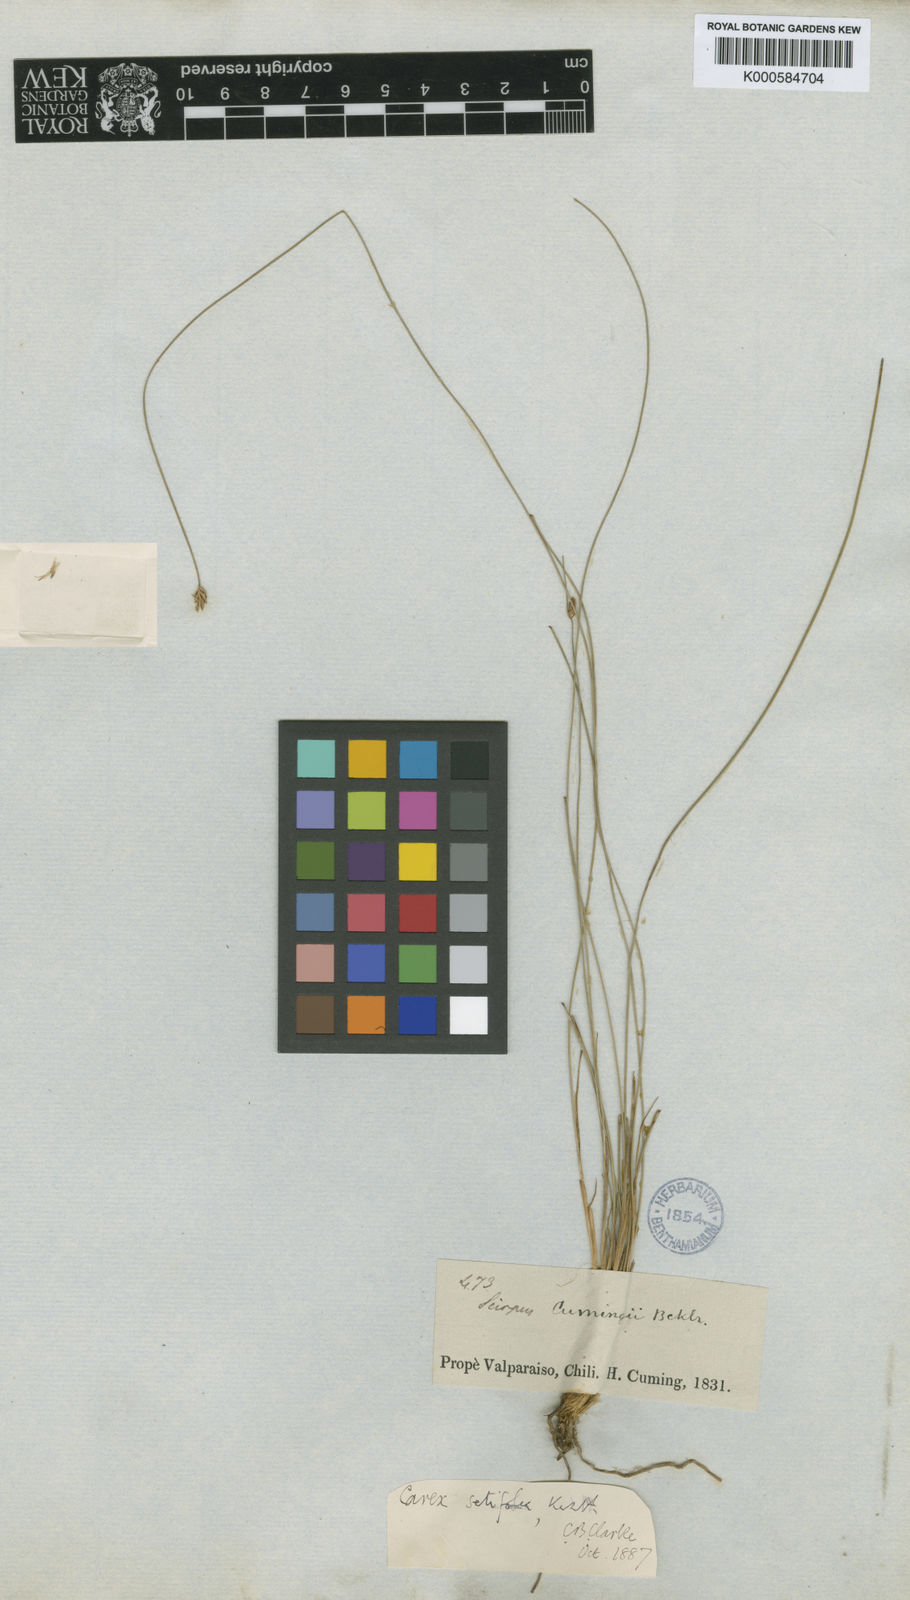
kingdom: Plantae
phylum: Tracheophyta
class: Liliopsida
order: Poales
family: Cyperaceae
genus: Carex
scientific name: Carex setifolia
